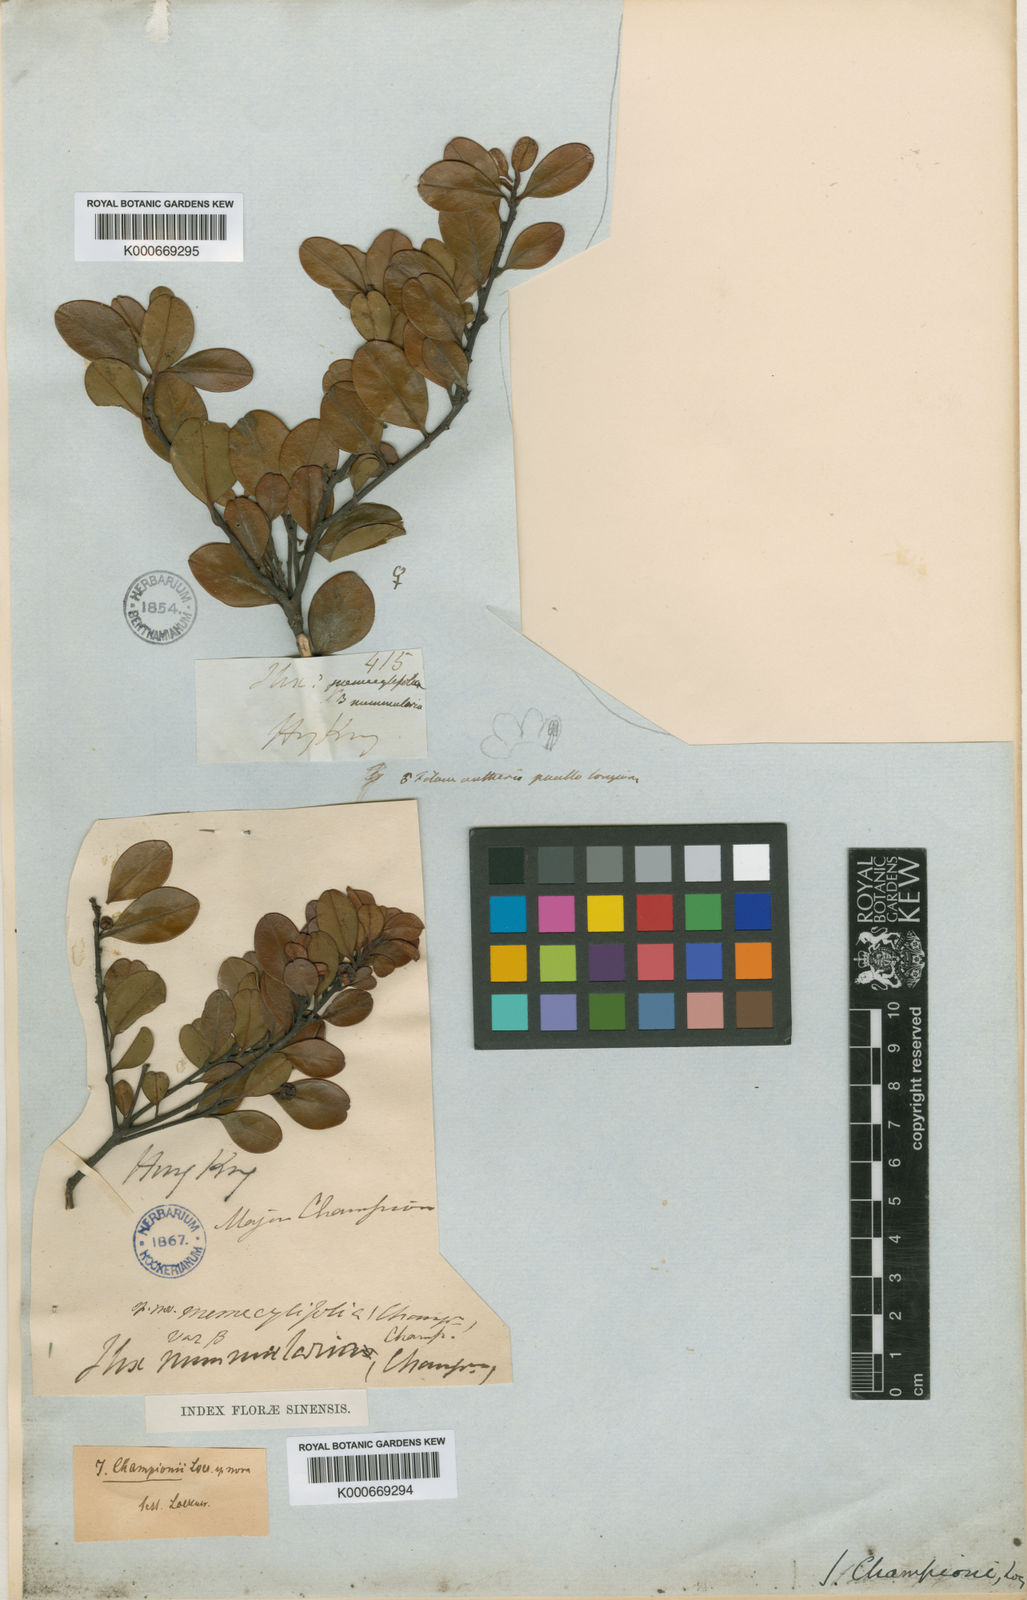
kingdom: Plantae
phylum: Tracheophyta
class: Magnoliopsida
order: Aquifoliales
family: Aquifoliaceae
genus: Ilex
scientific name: Ilex championii
